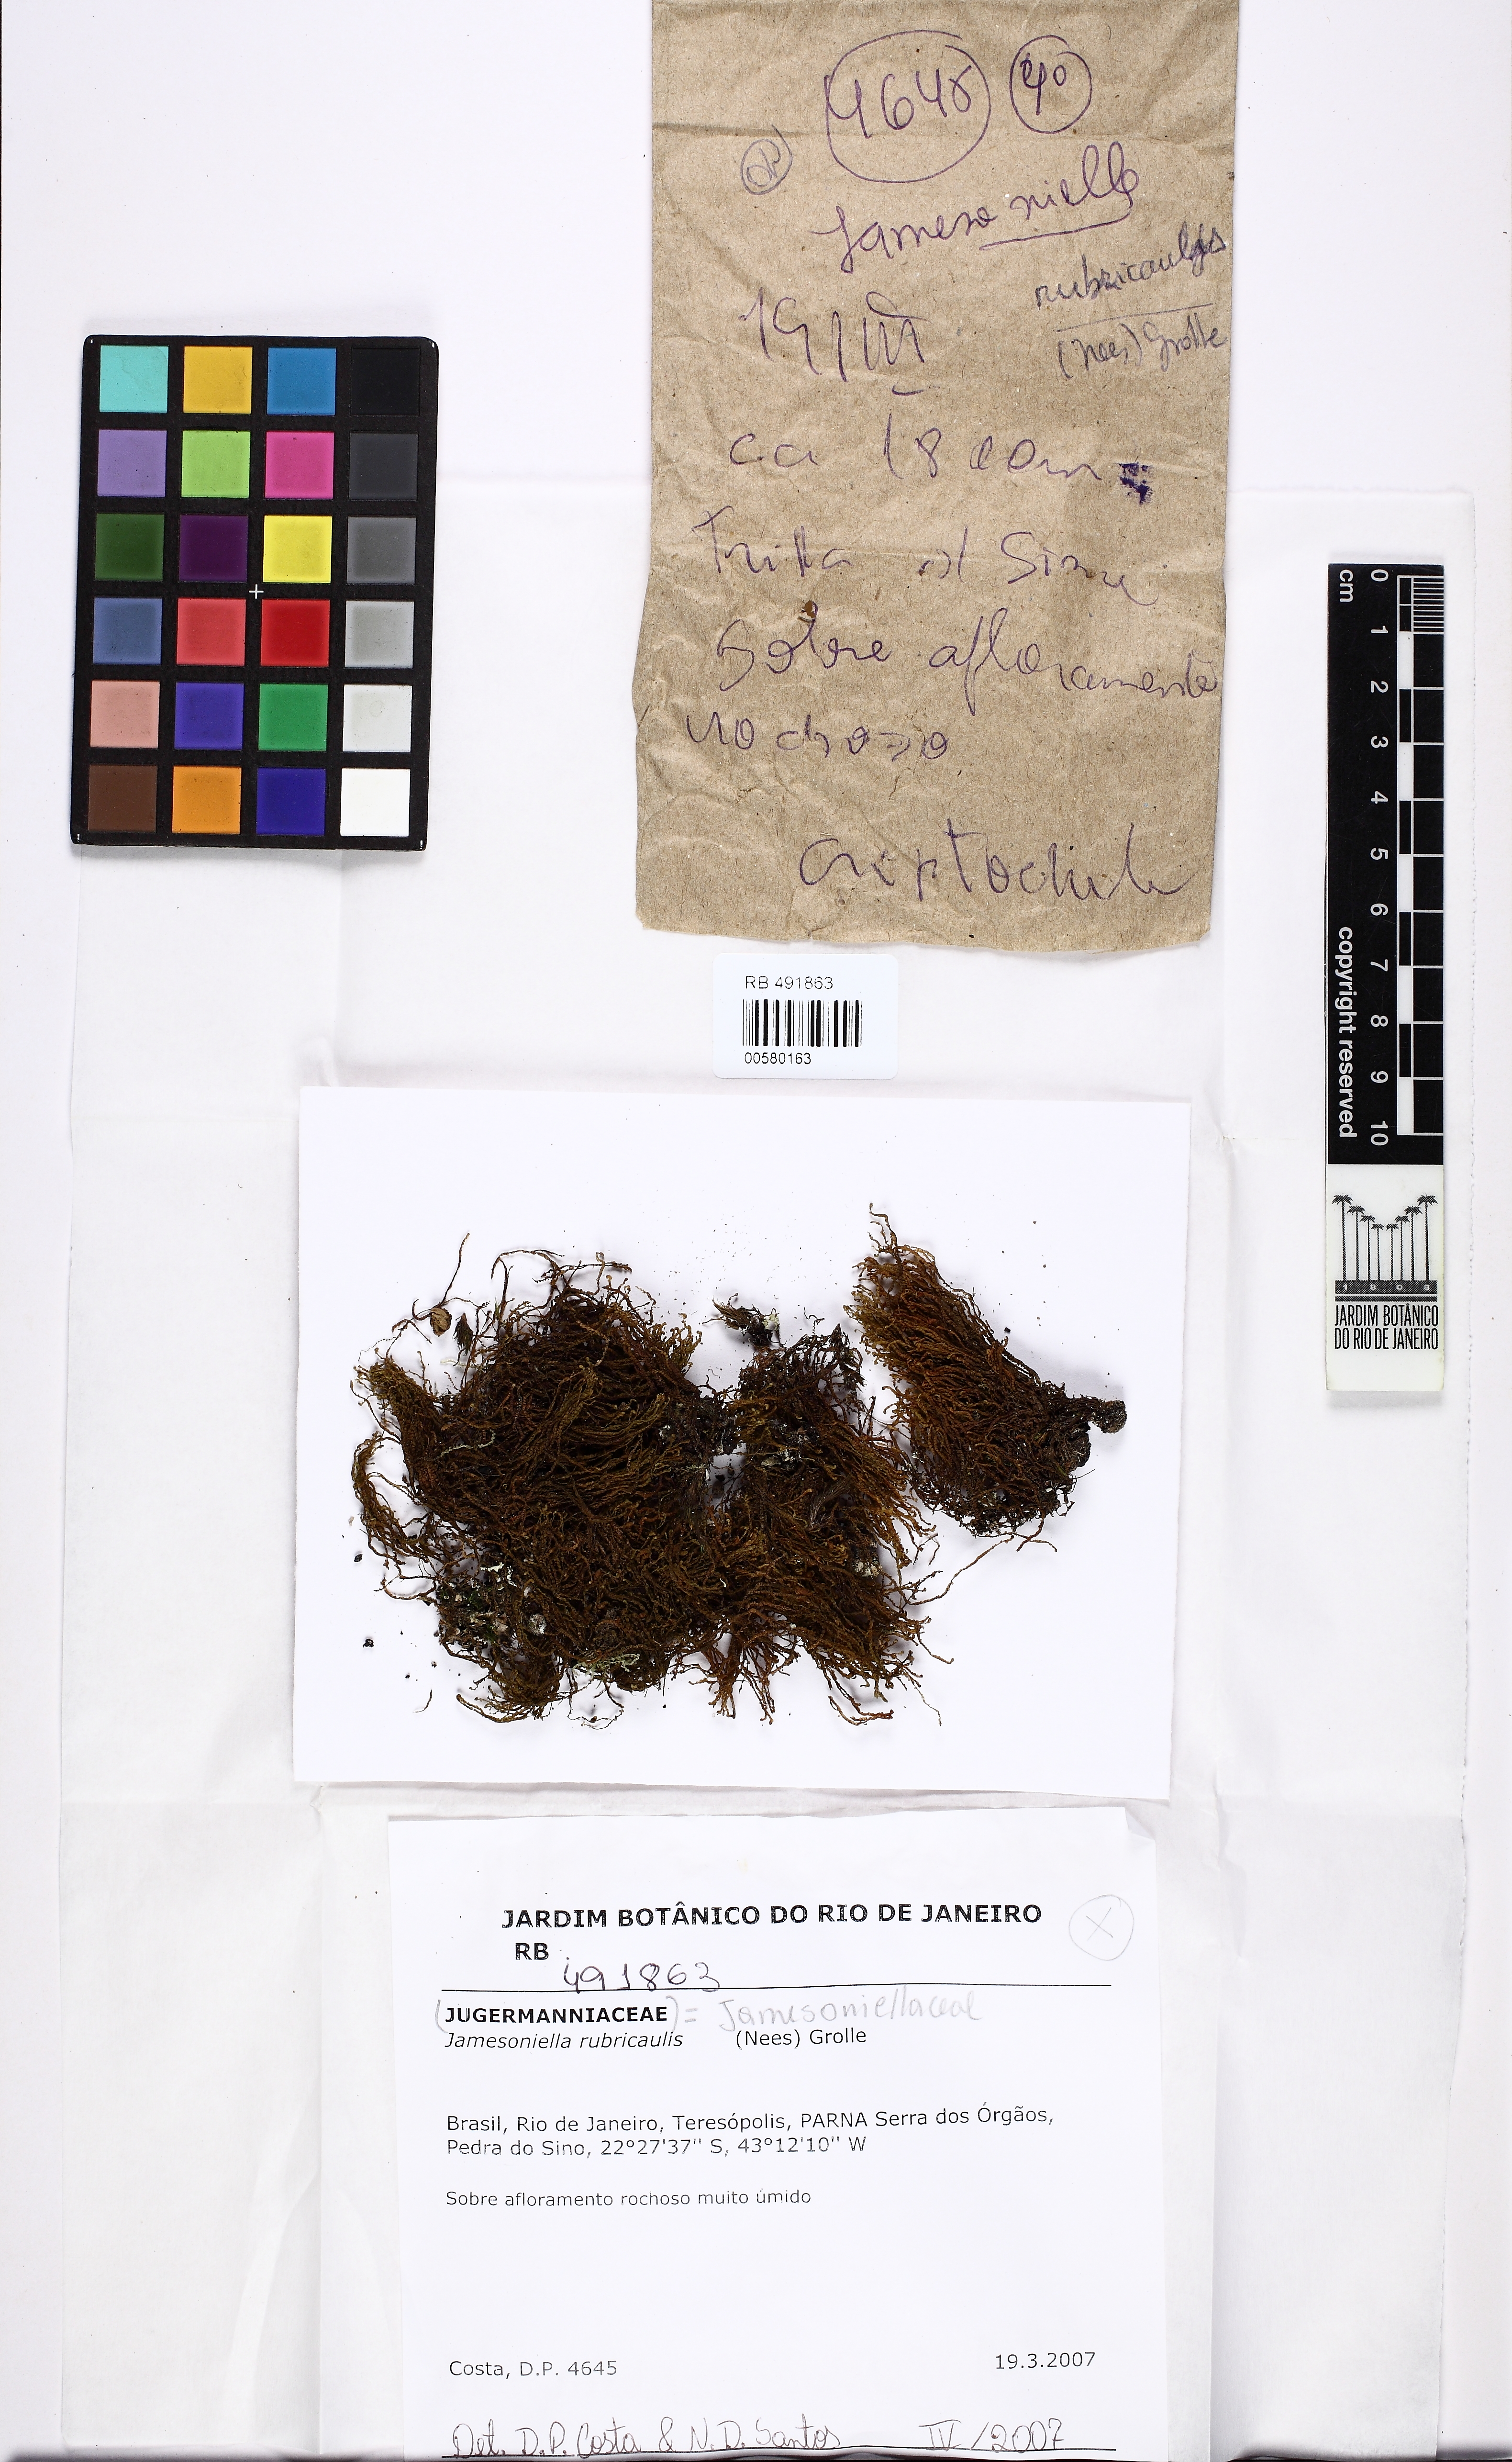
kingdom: Plantae
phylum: Marchantiophyta
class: Jungermanniopsida
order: Jungermanniales
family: Adelanthaceae
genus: Syzygiella
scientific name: Syzygiella rubricaulis
